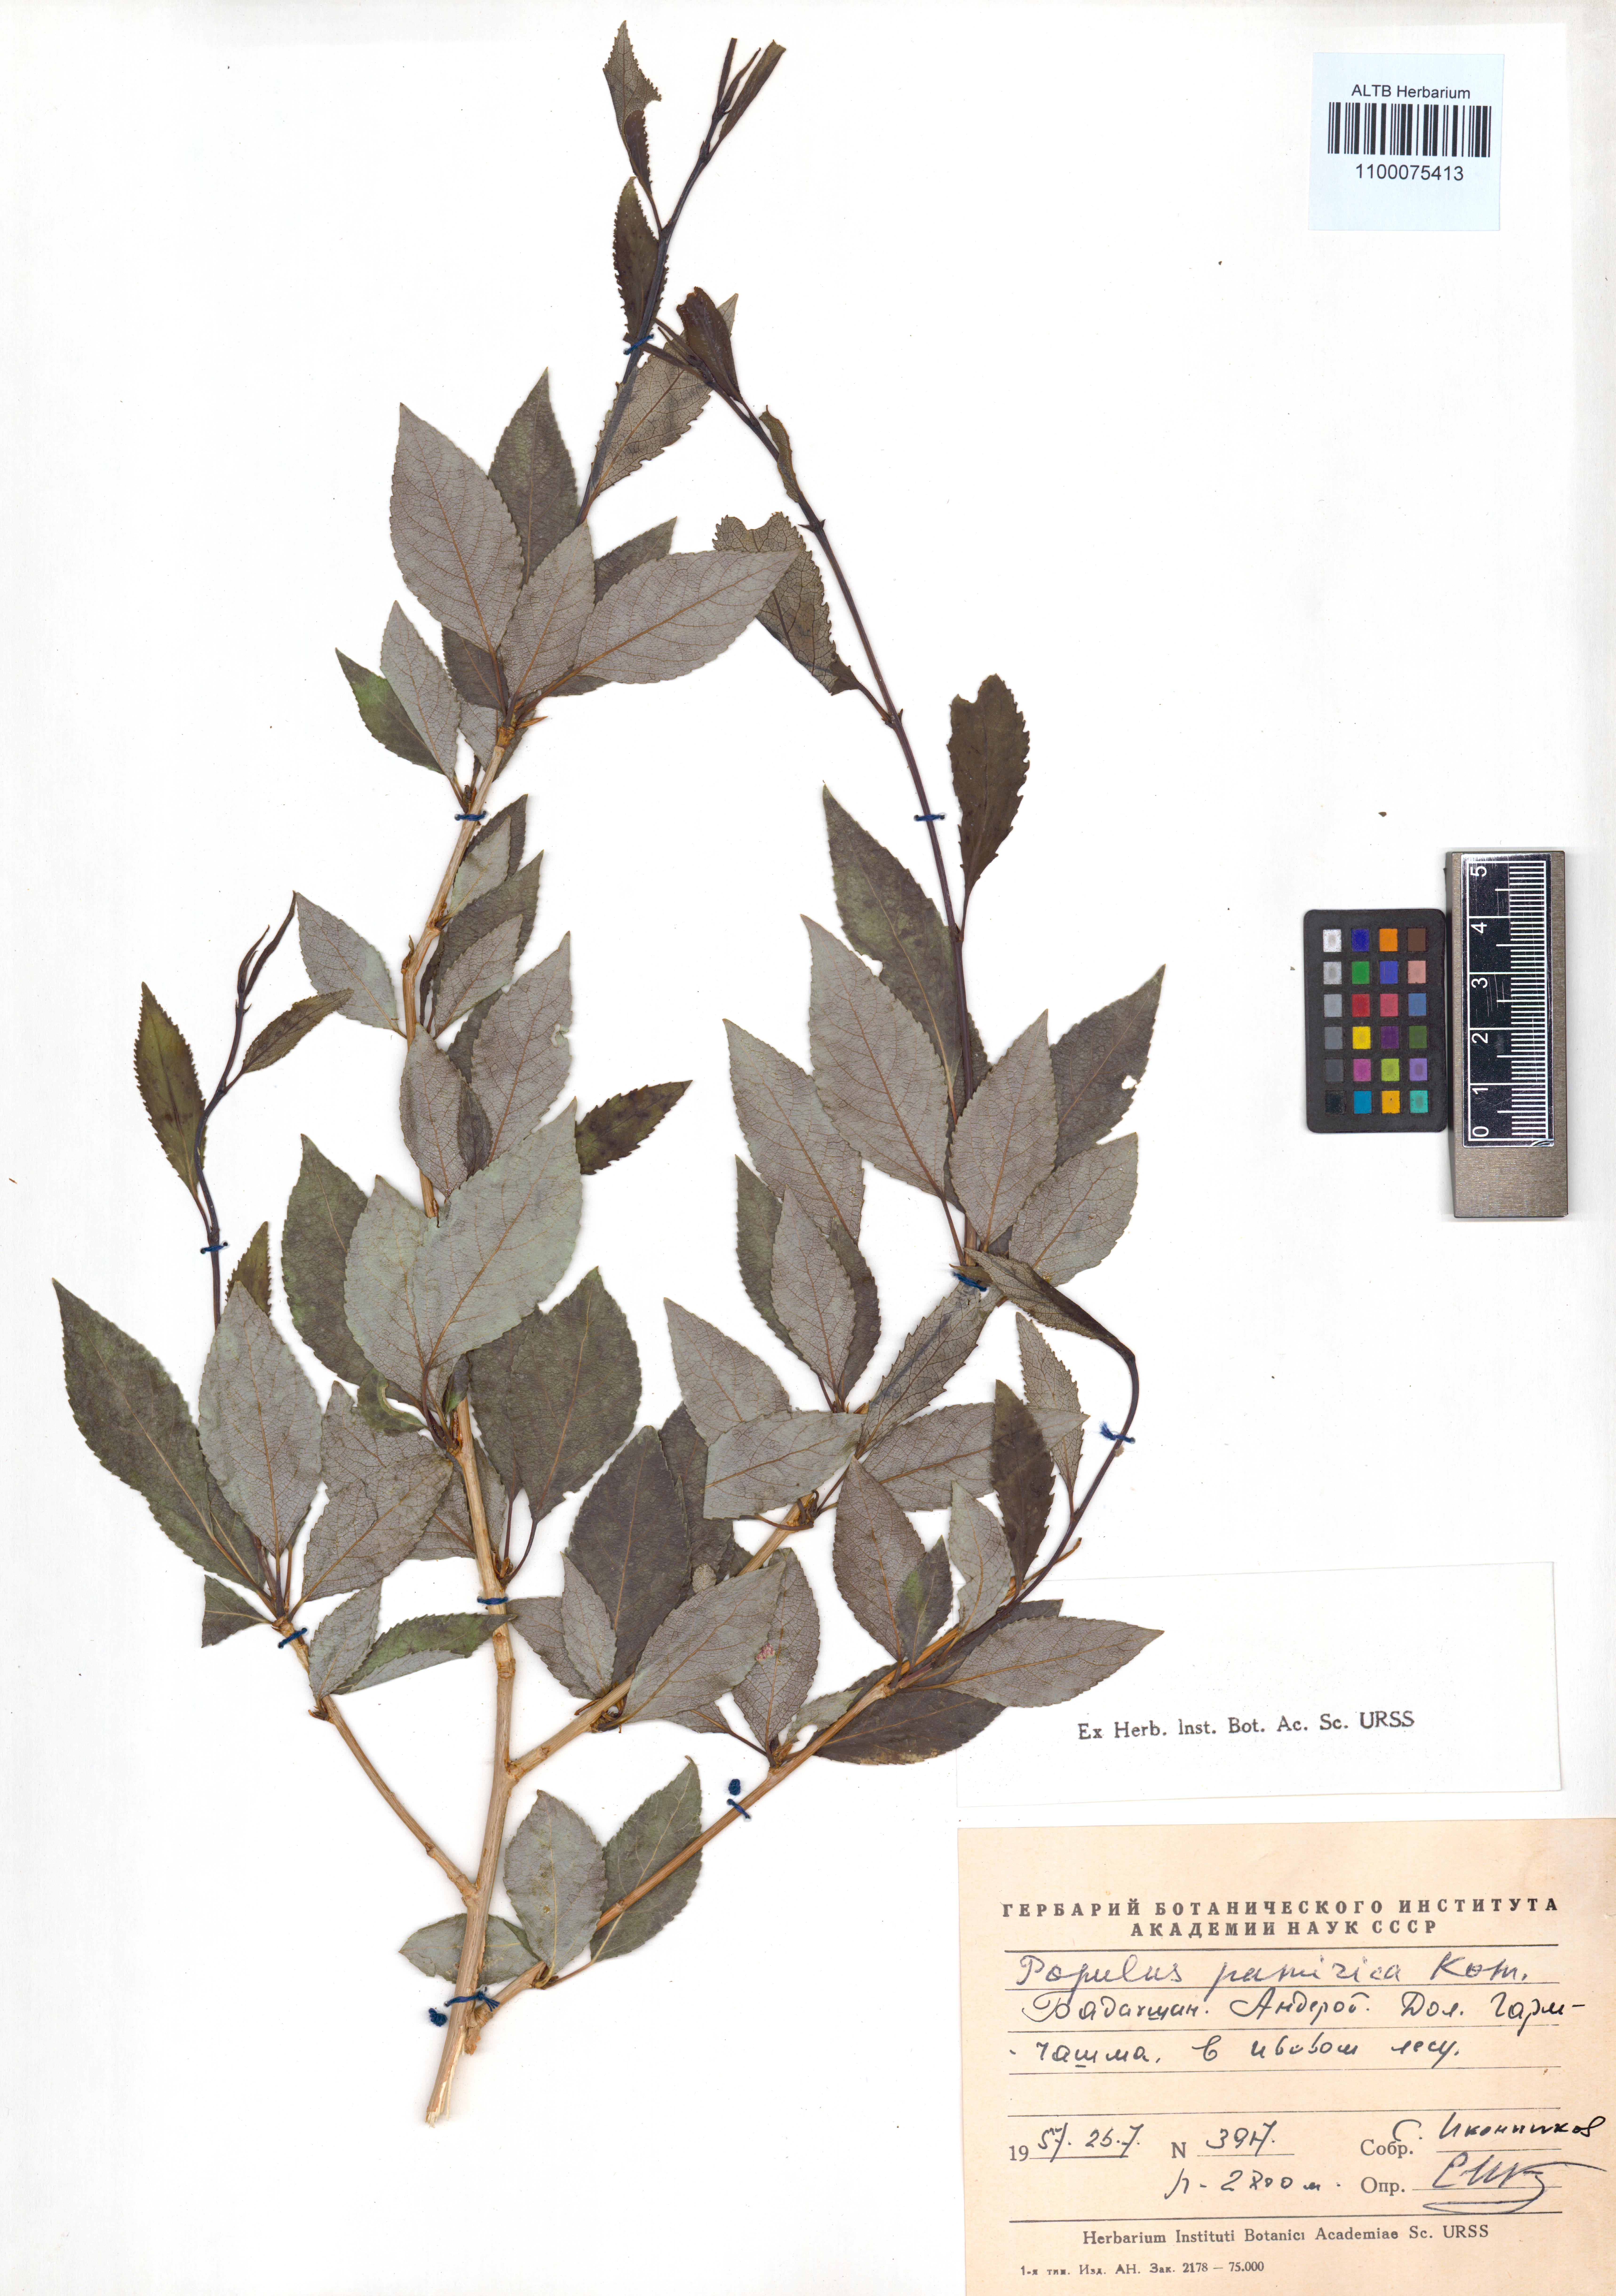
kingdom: Plantae
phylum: Tracheophyta
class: Magnoliopsida
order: Malpighiales
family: Salicaceae
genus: Populus
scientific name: Populus pamirica
